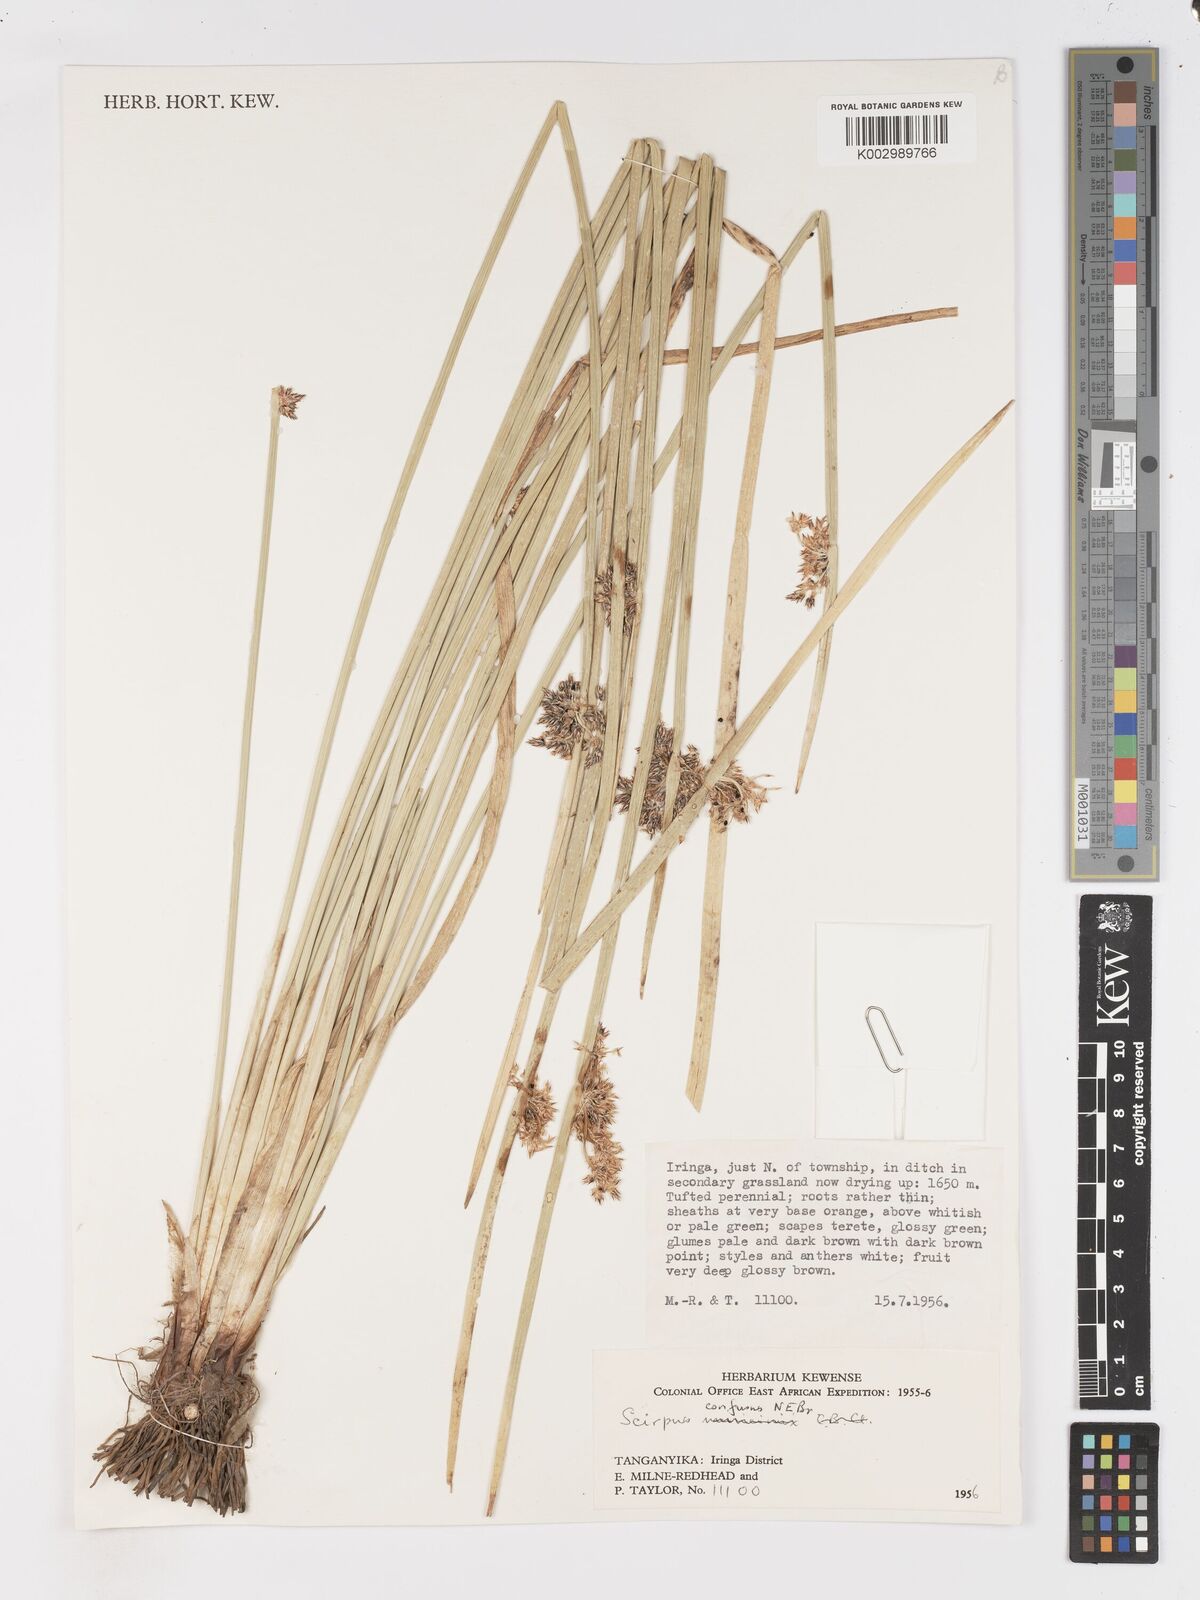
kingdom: Plantae
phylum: Tracheophyta
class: Liliopsida
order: Poales
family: Cyperaceae
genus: Schoenoplectiella
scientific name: Schoenoplectiella confusa
